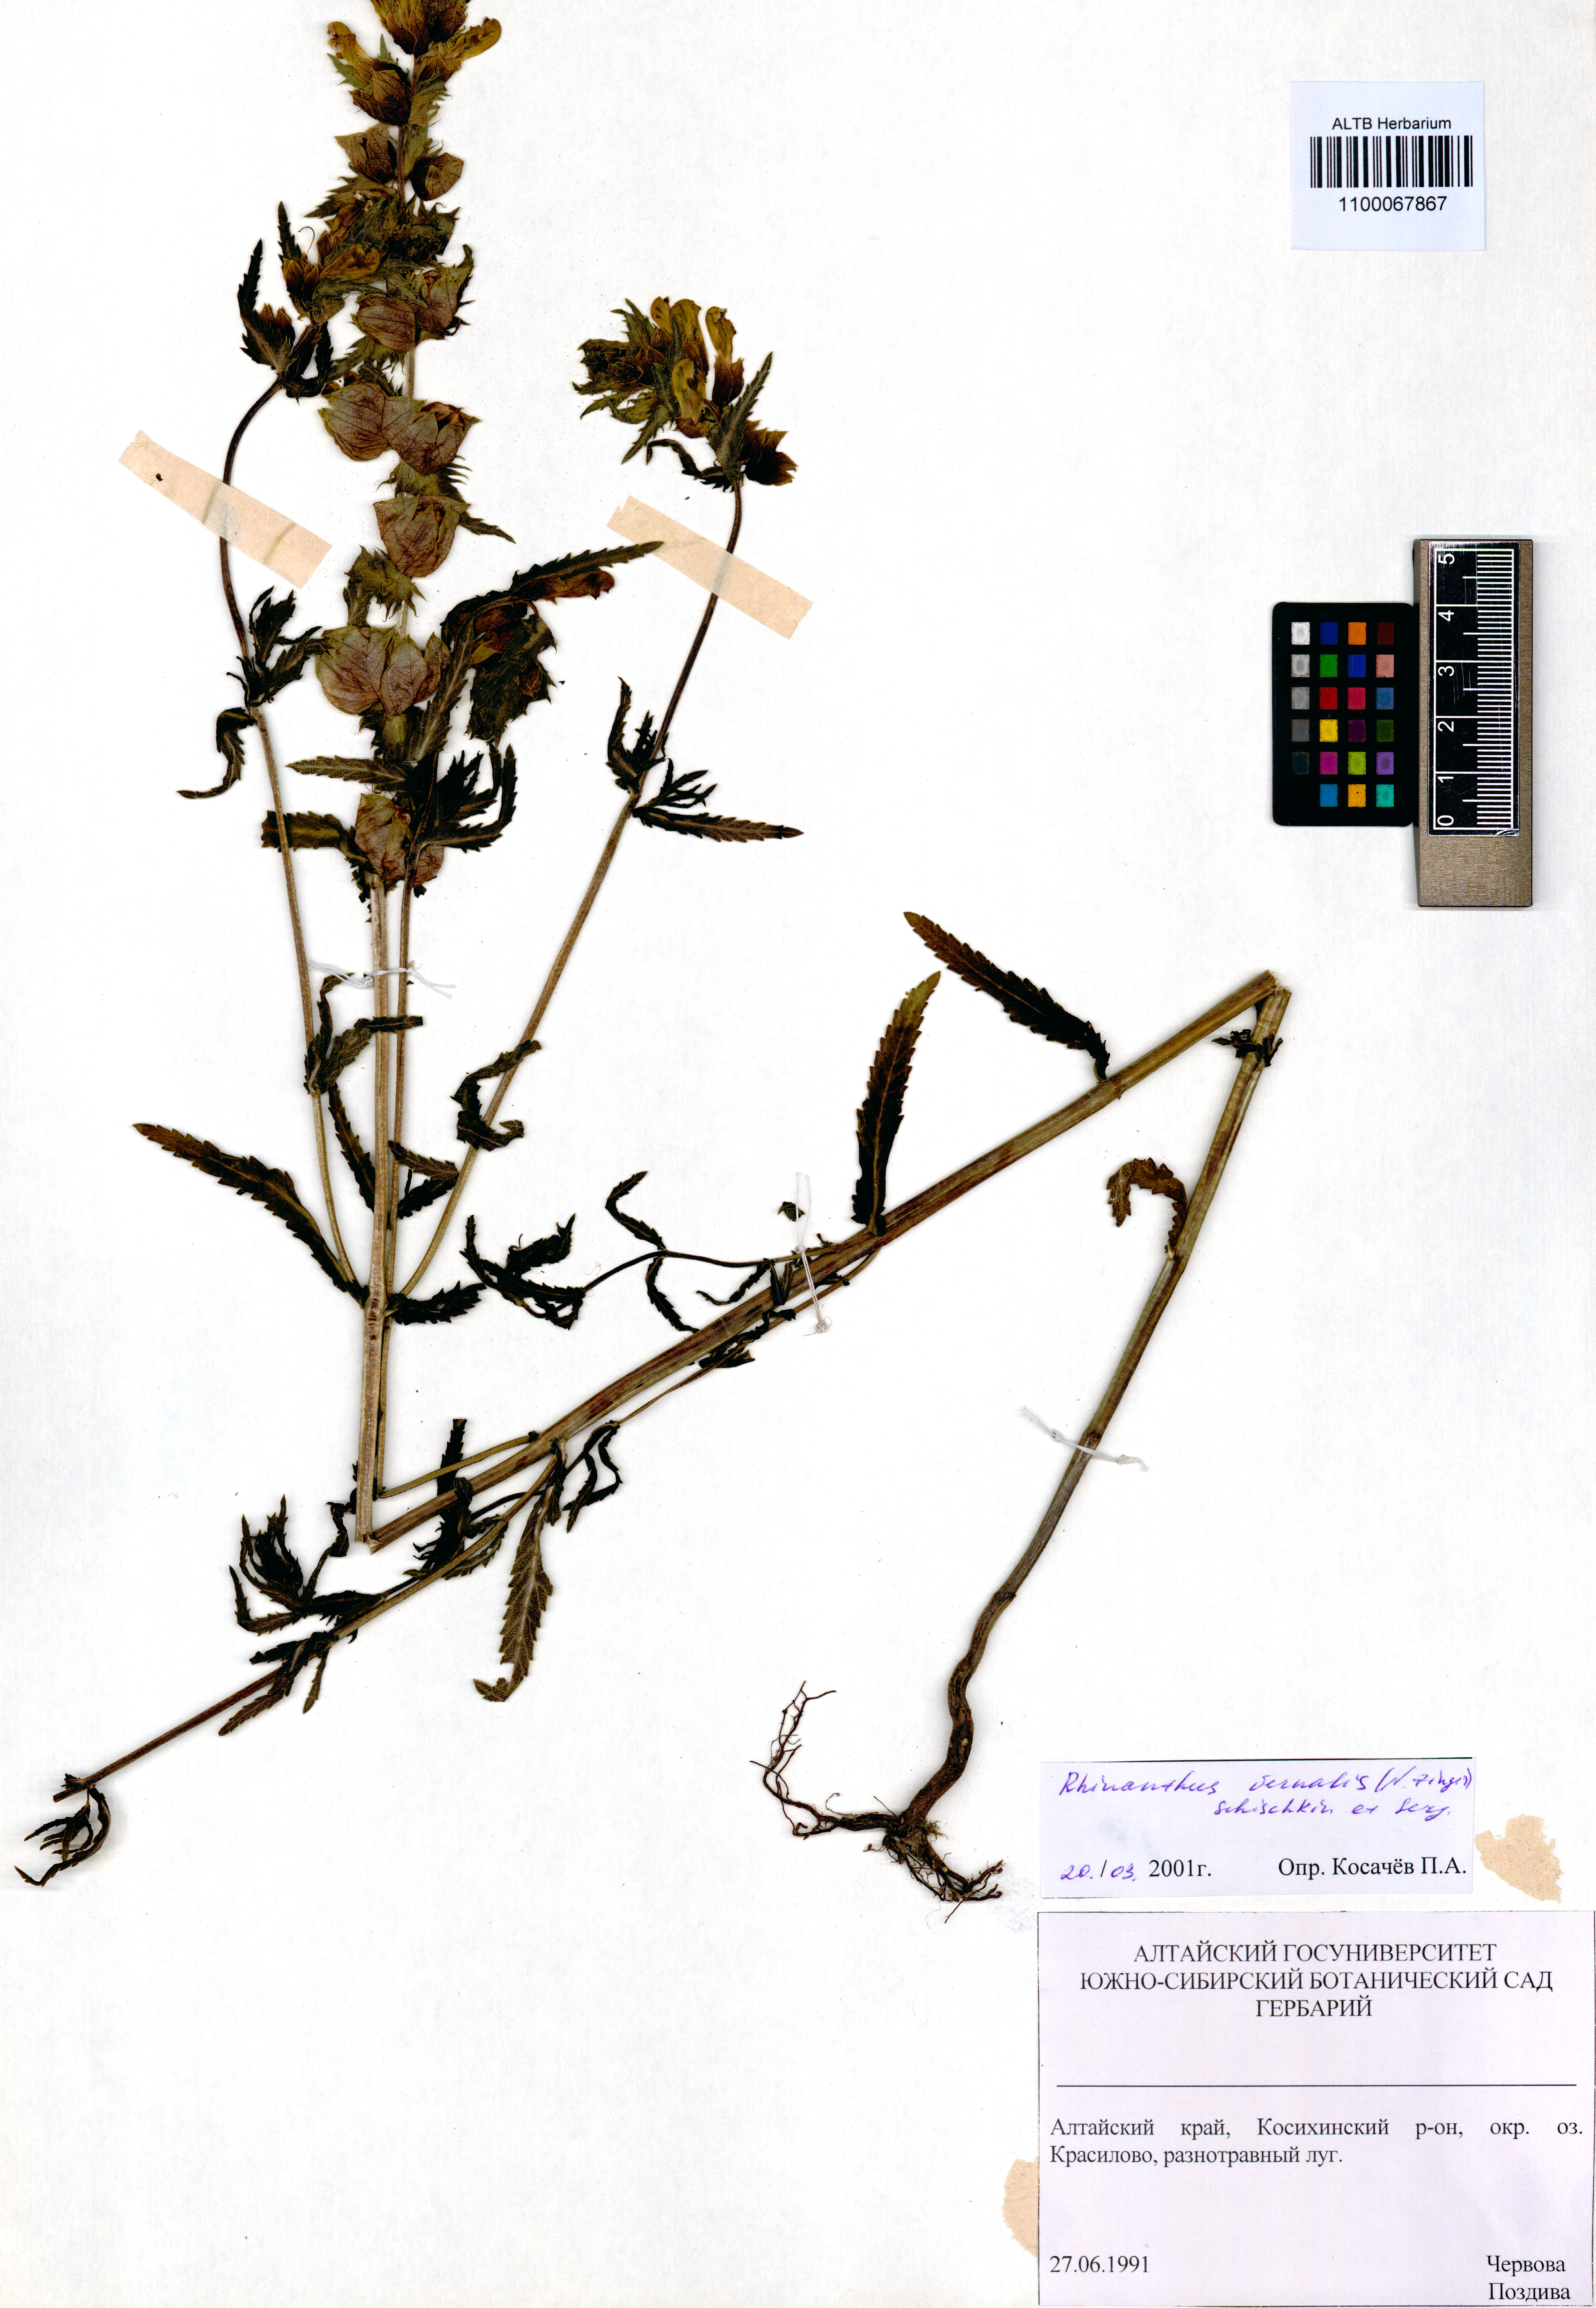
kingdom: Plantae
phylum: Tracheophyta
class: Magnoliopsida
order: Lamiales
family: Orobanchaceae
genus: Rhinanthus
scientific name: Rhinanthus serotinus
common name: Late-flowering yellow rattle
